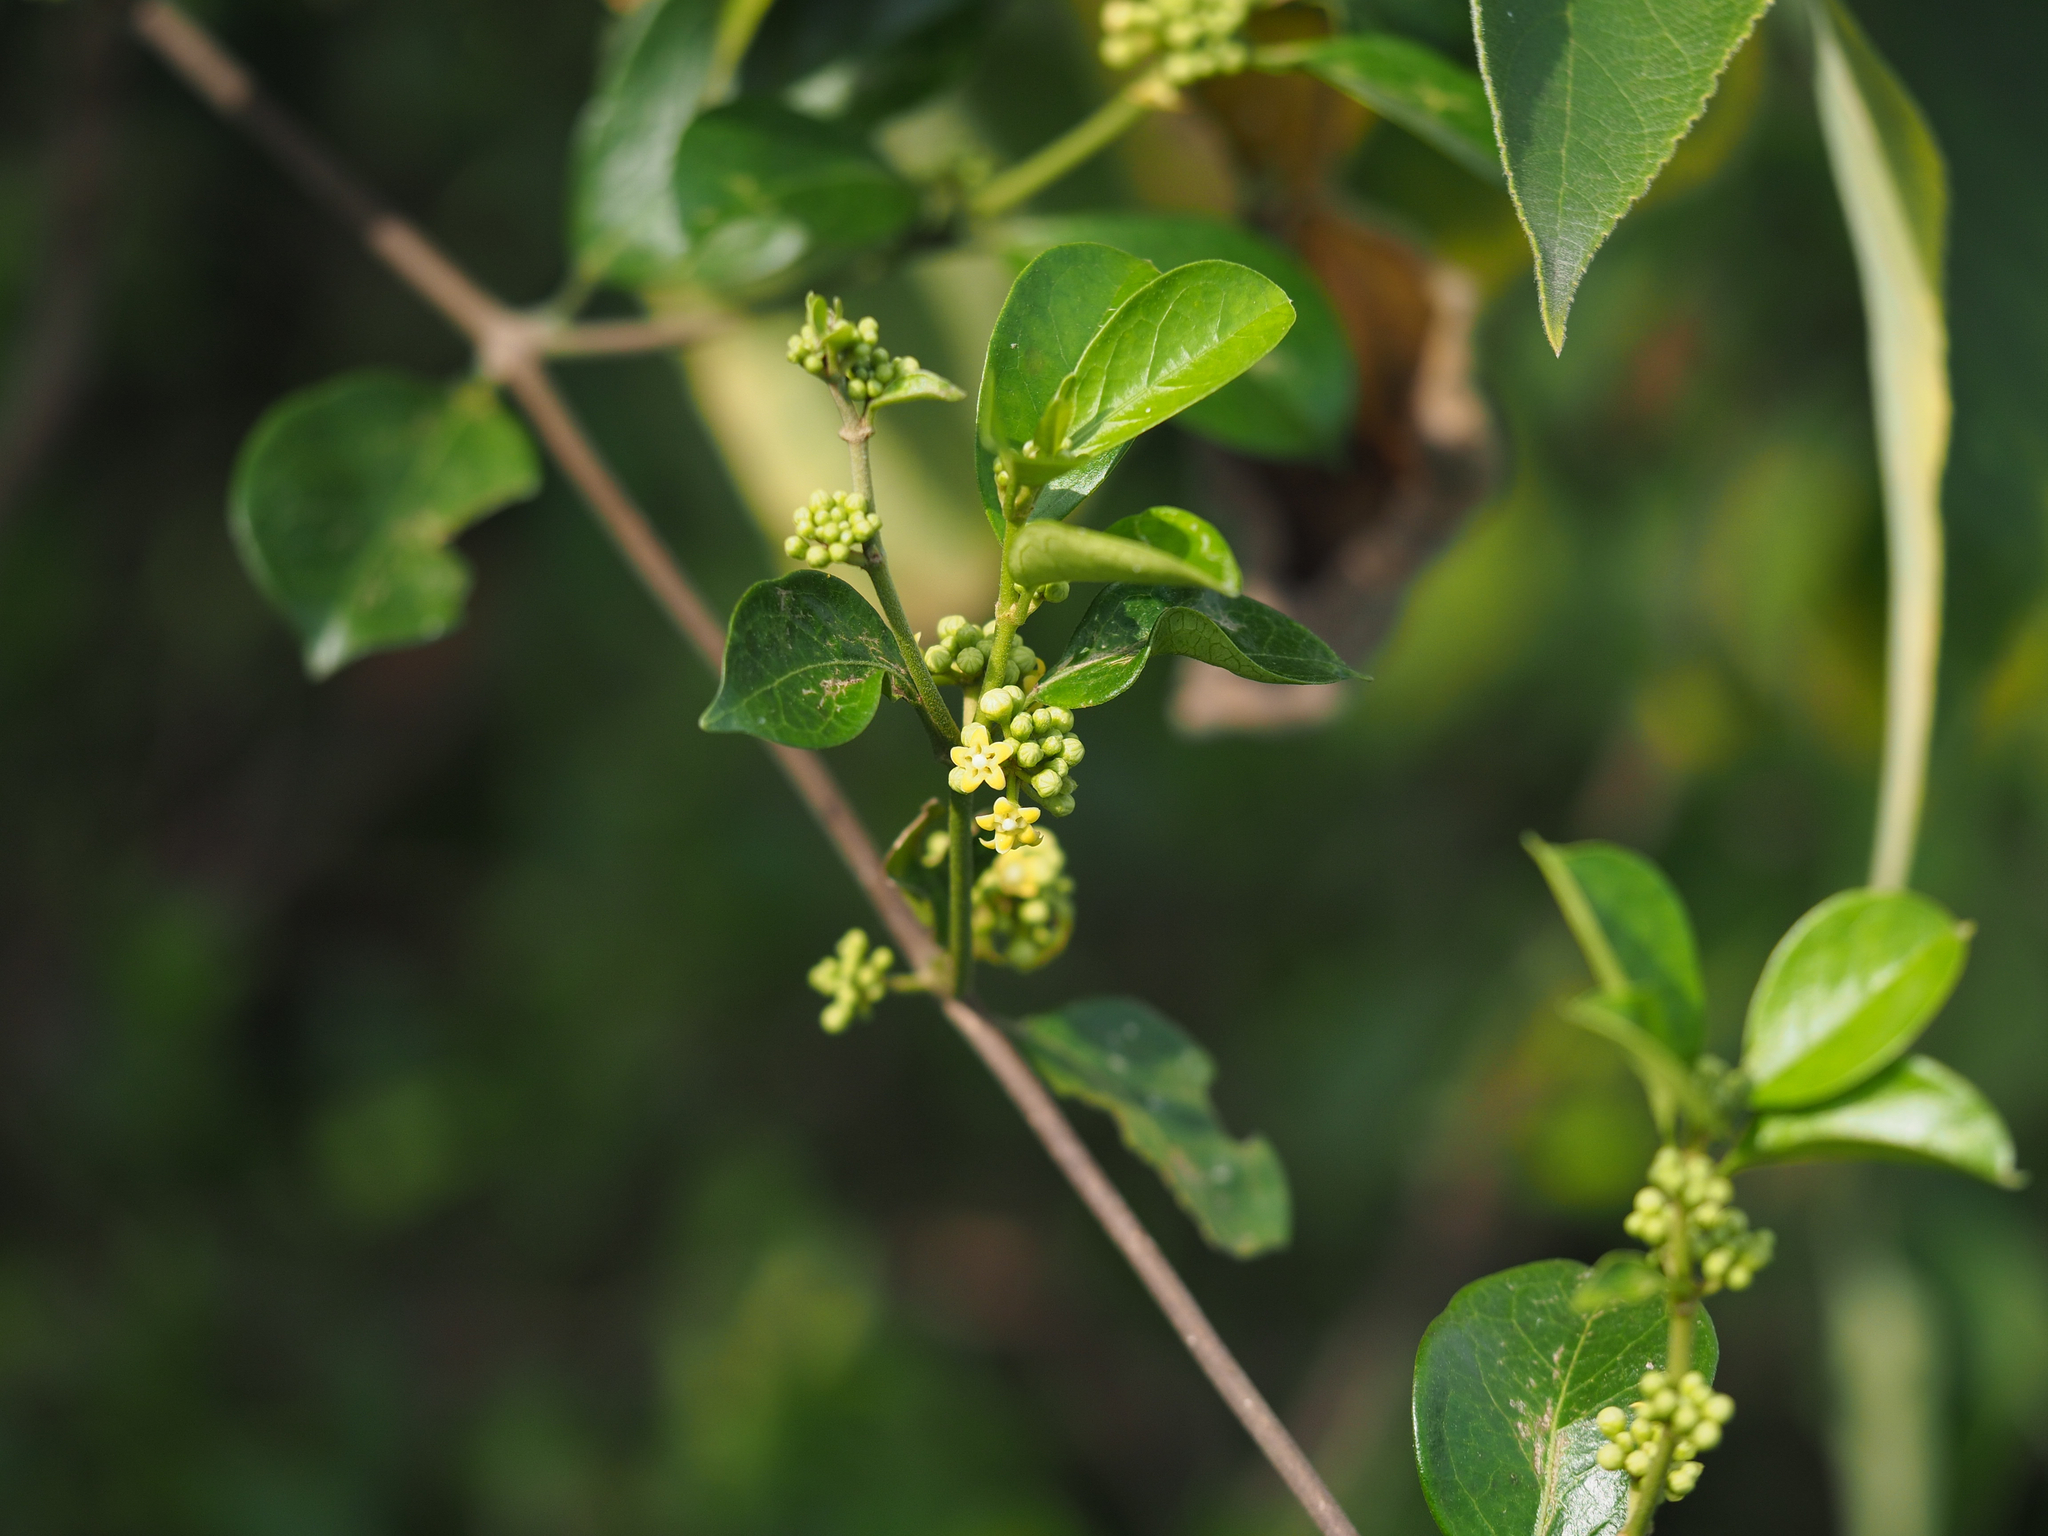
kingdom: Plantae
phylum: Tracheophyta
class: Magnoliopsida
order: Gentianales
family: Apocynaceae
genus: Gymnema
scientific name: Gymnema sylvestre
